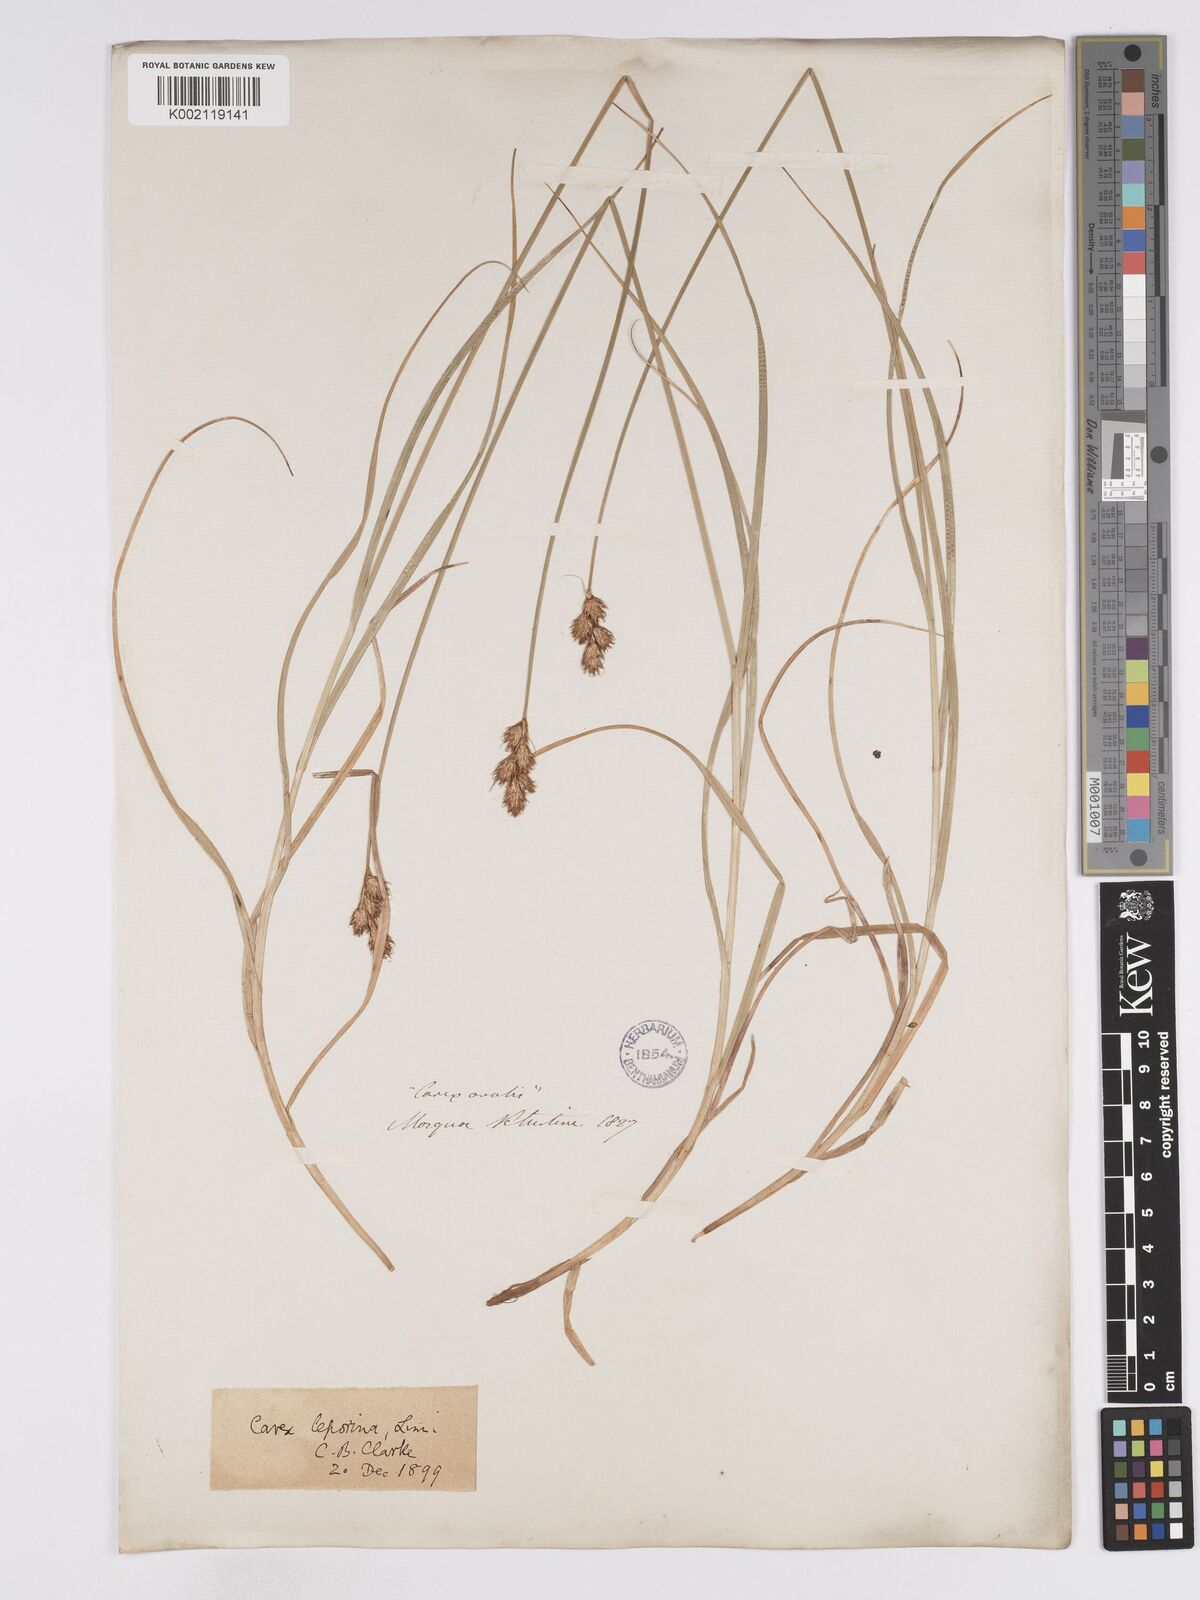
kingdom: Plantae
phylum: Tracheophyta
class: Liliopsida
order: Poales
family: Cyperaceae
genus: Carex
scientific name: Carex leporina
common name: Oval sedge
